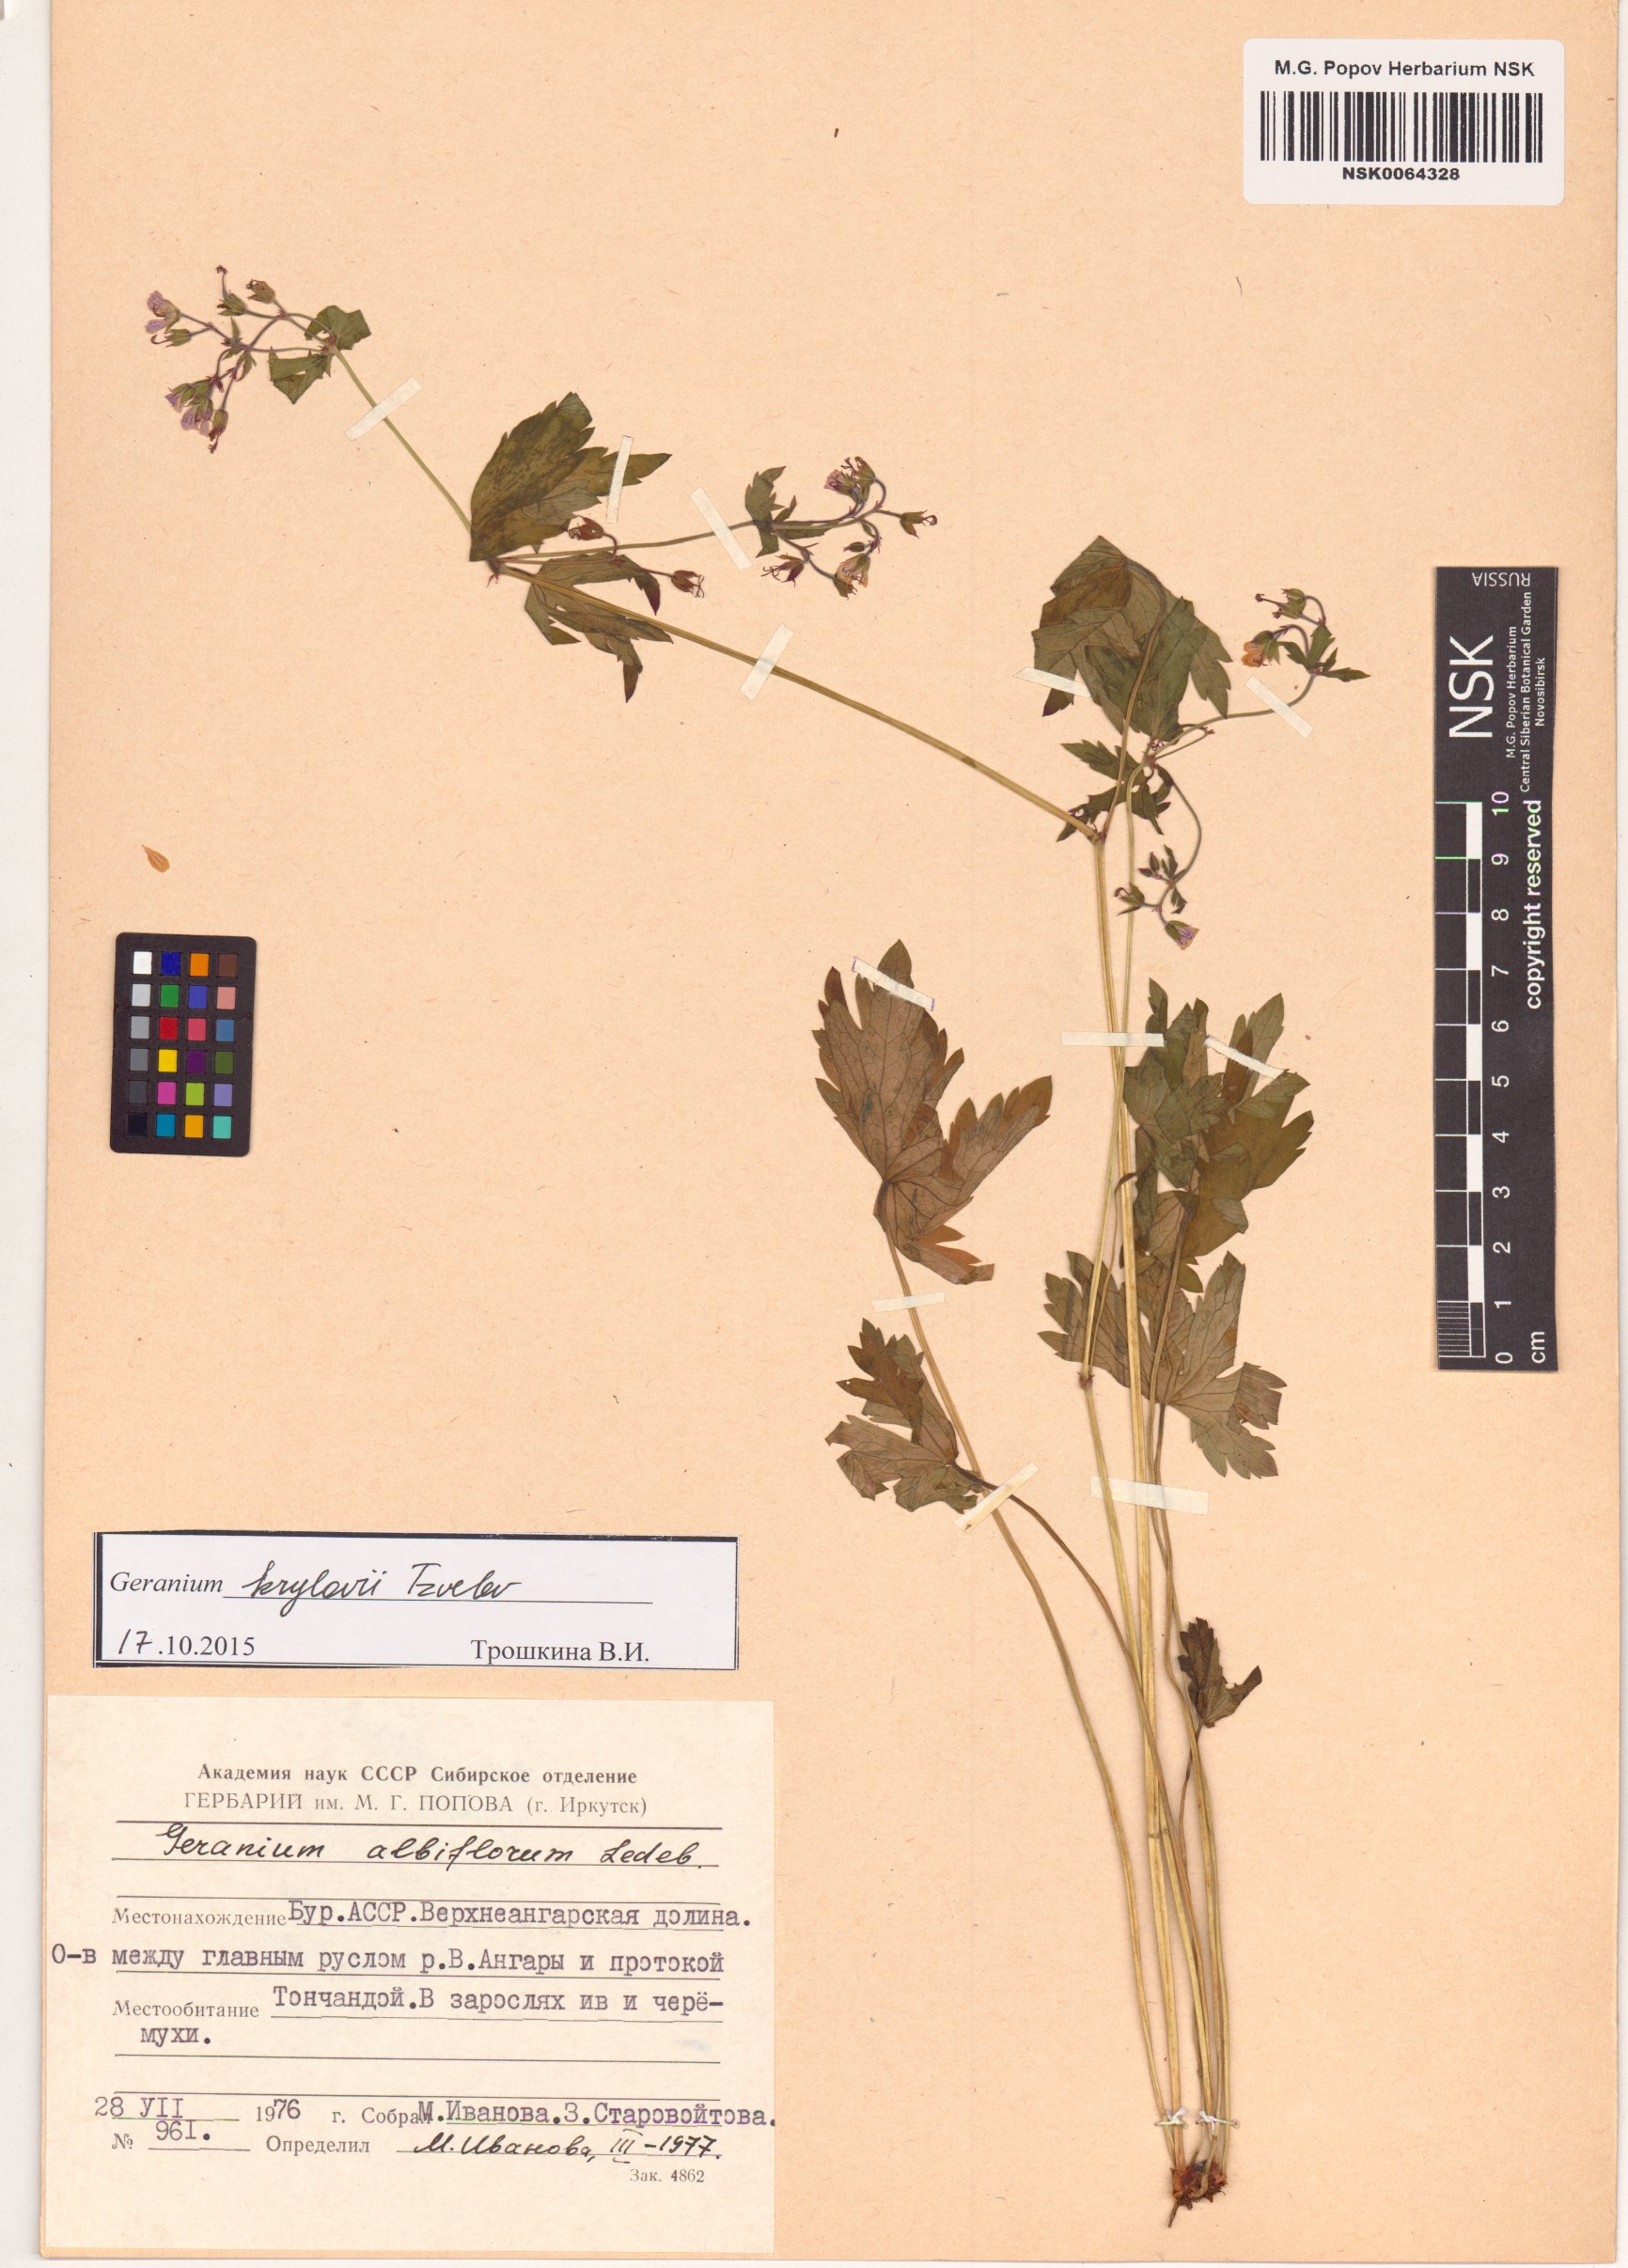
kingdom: Plantae
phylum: Tracheophyta
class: Magnoliopsida
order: Geraniales
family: Geraniaceae
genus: Geranium
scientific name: Geranium sylvaticum
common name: Wood crane's-bill
